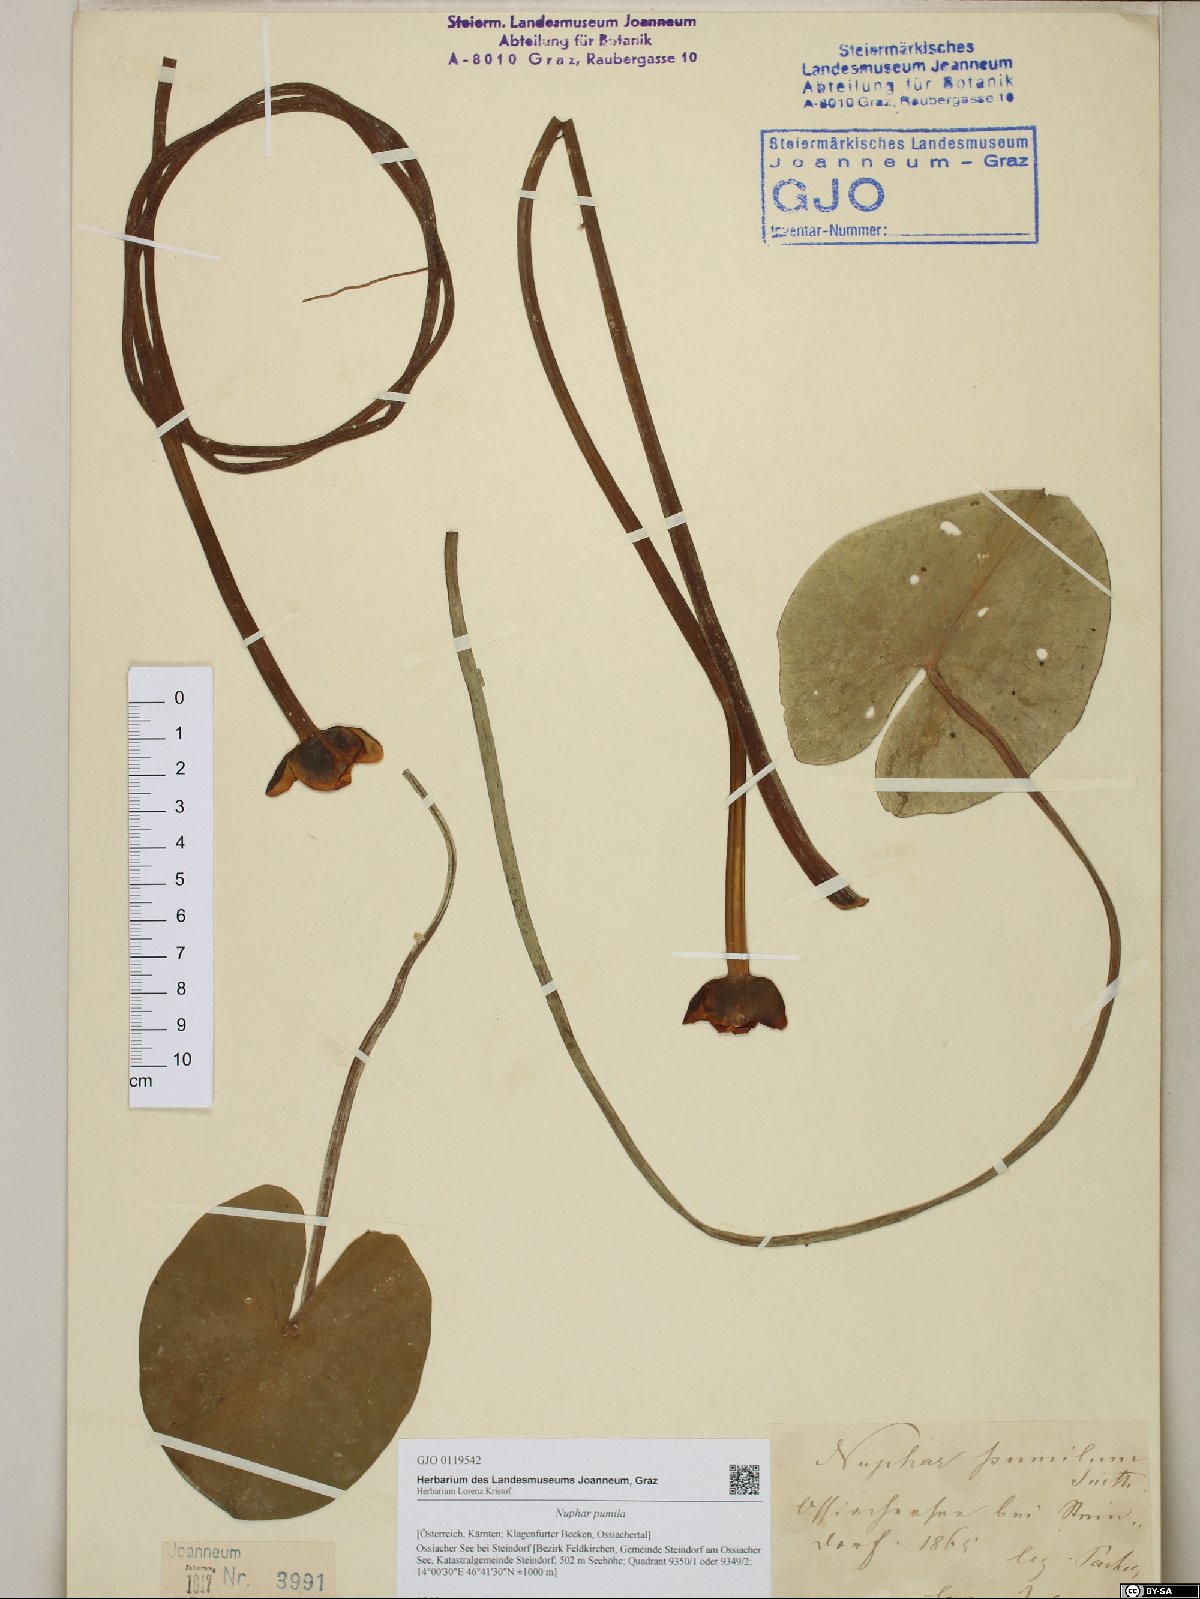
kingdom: Plantae
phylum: Tracheophyta
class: Magnoliopsida
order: Nymphaeales
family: Nymphaeaceae
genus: Nuphar
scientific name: Nuphar pumila
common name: Least water-lily
